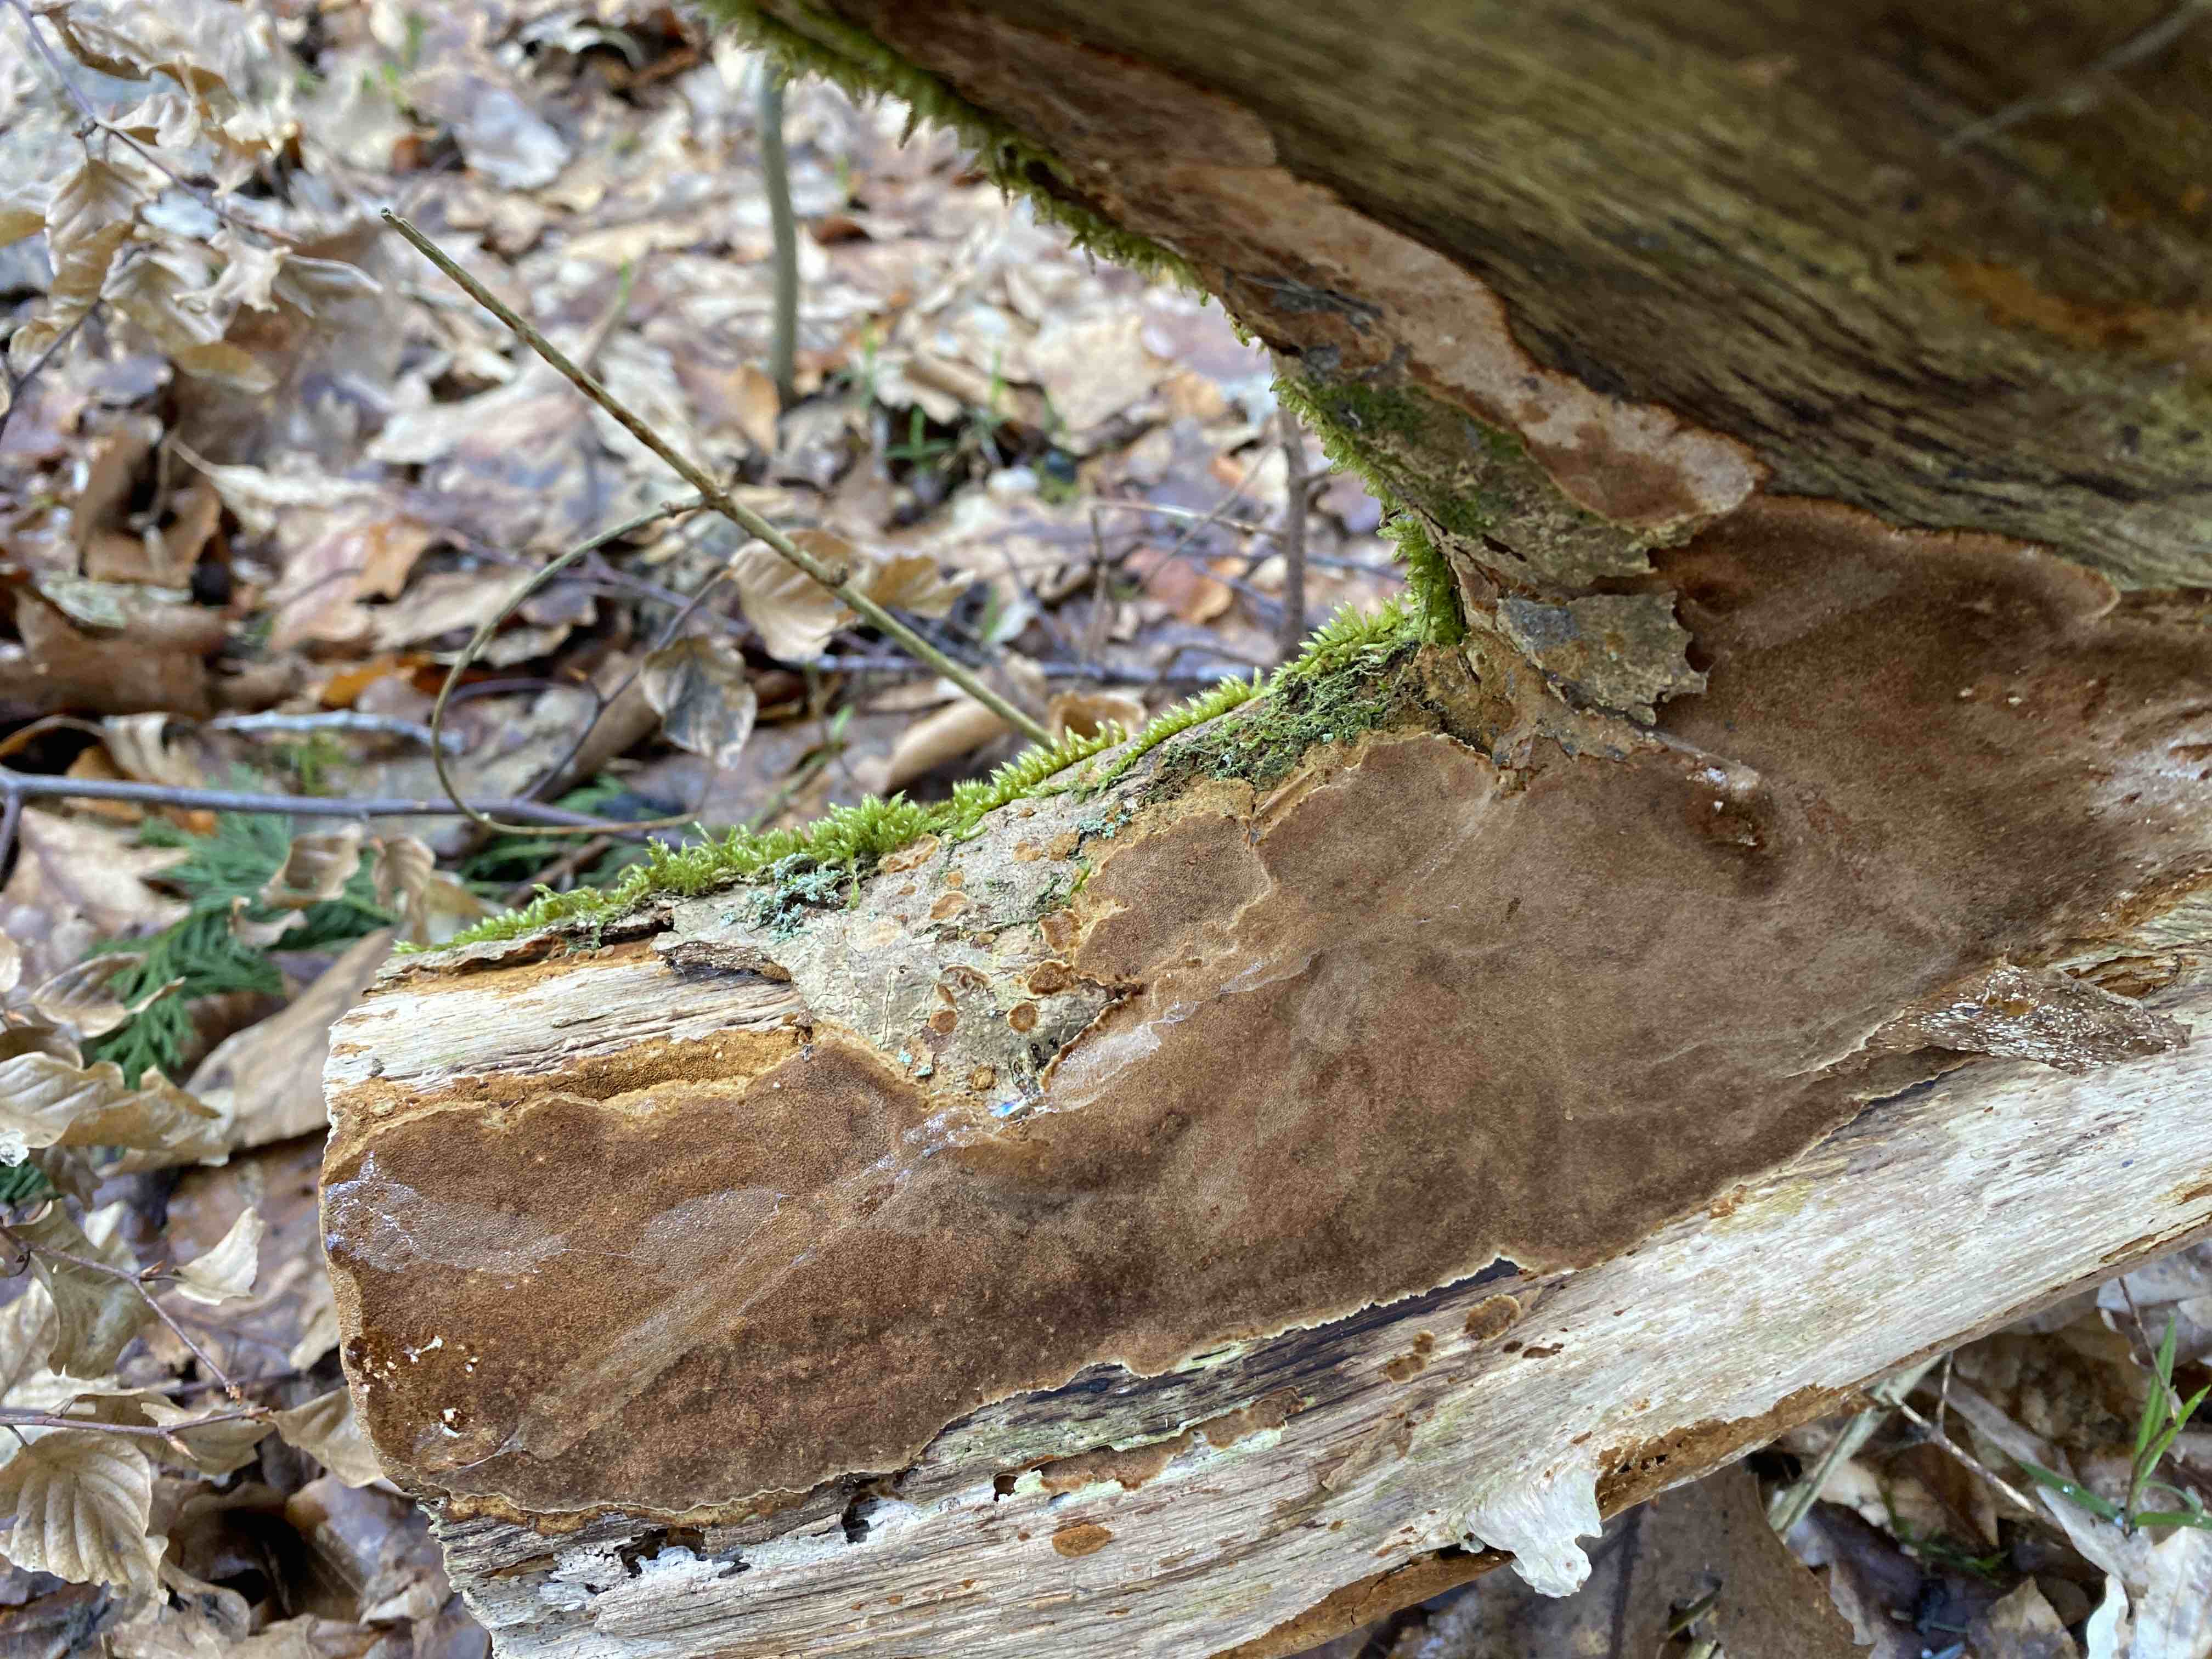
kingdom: Fungi
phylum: Basidiomycota
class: Agaricomycetes
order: Hymenochaetales
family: Hymenochaetaceae
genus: Fuscoporia
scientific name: Fuscoporia ferrea
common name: skorpe-ildporesvamp
